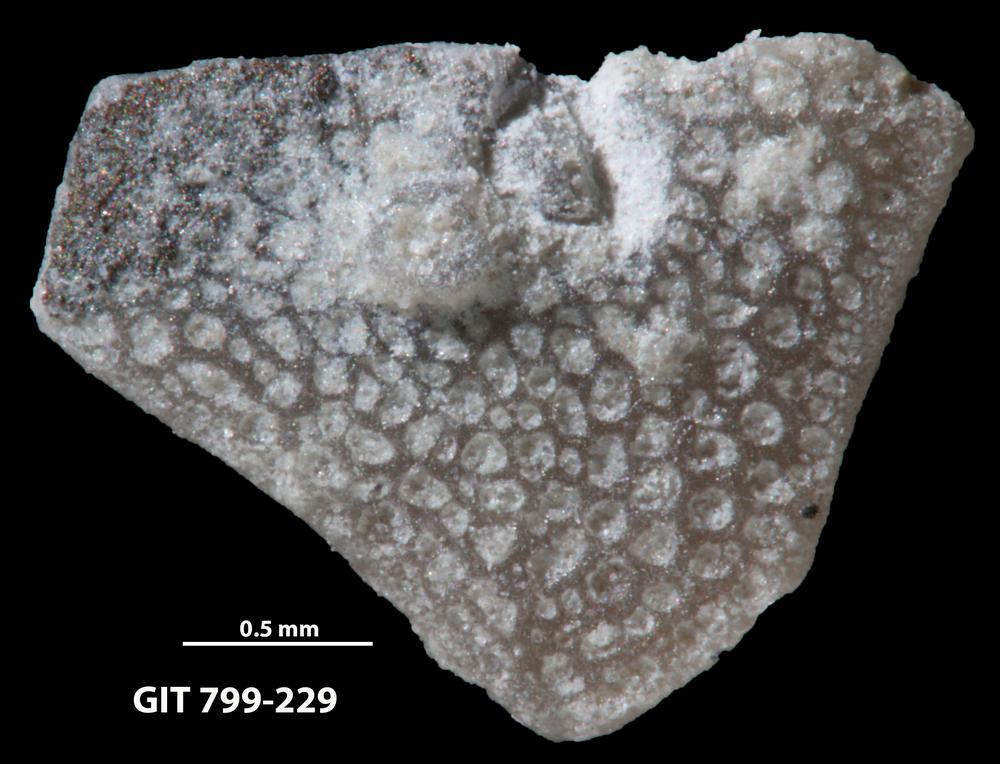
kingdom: Animalia
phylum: Echinodermata
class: Echinoidea
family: Lepidocentridae
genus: Aptilechinus
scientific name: Aptilechinus
